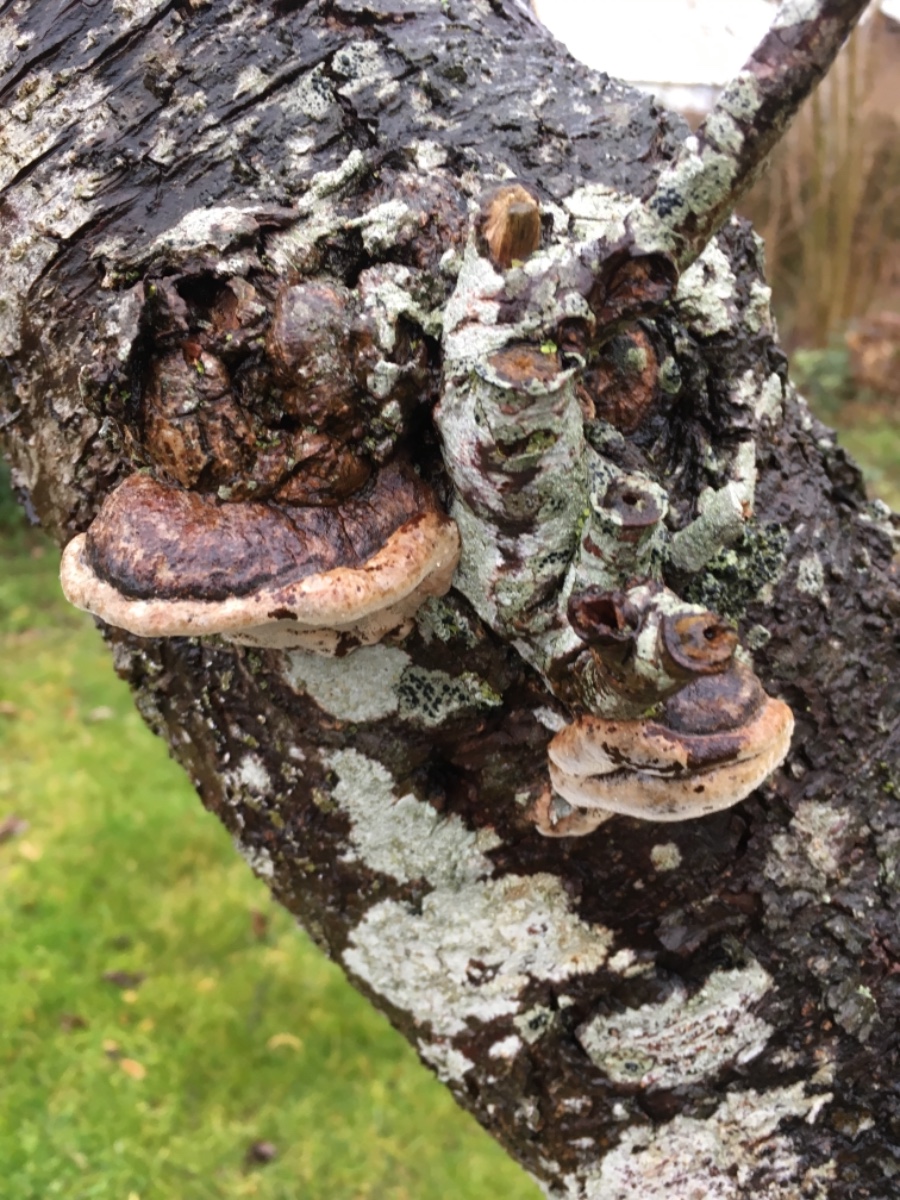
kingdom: Fungi
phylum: Basidiomycota
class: Agaricomycetes
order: Hymenochaetales
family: Hymenochaetaceae
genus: Phellinus
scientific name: Phellinus pomaceus
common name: blomme-ildporesvamp
